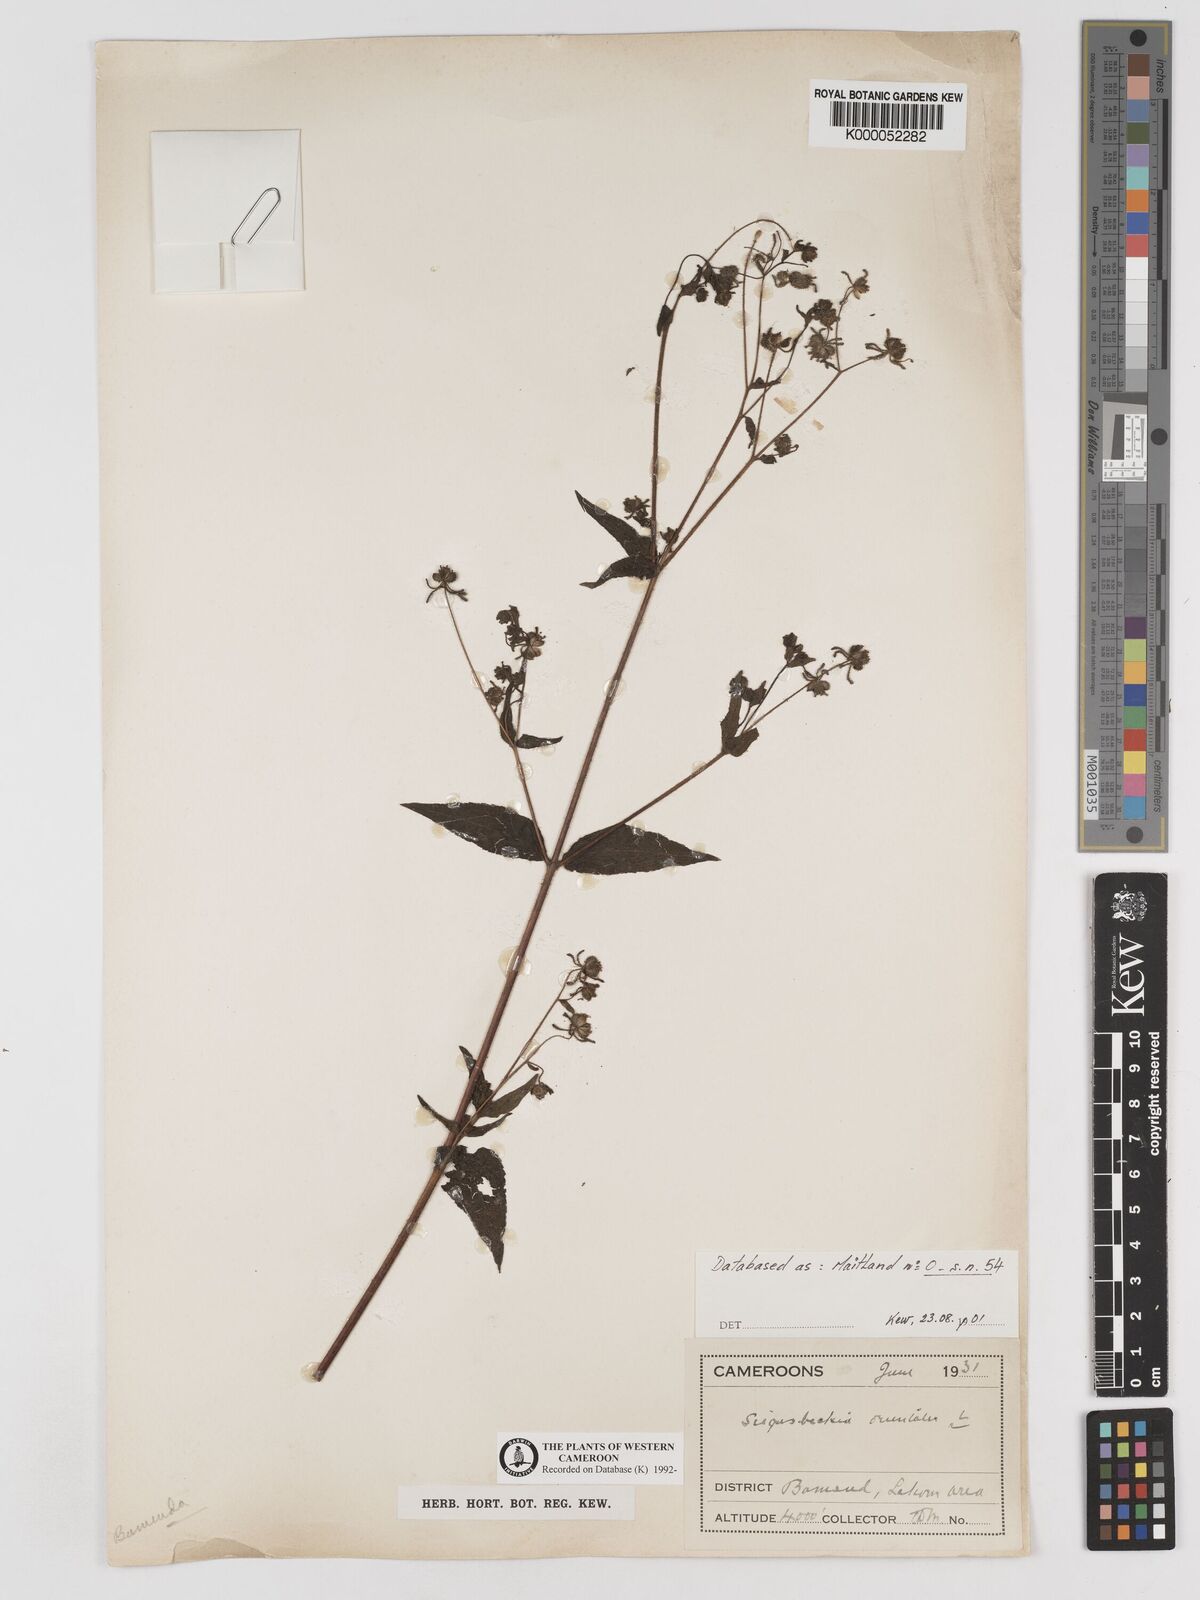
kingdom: Plantae
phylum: Tracheophyta
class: Magnoliopsida
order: Asterales
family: Asteraceae
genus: Sigesbeckia
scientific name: Sigesbeckia
